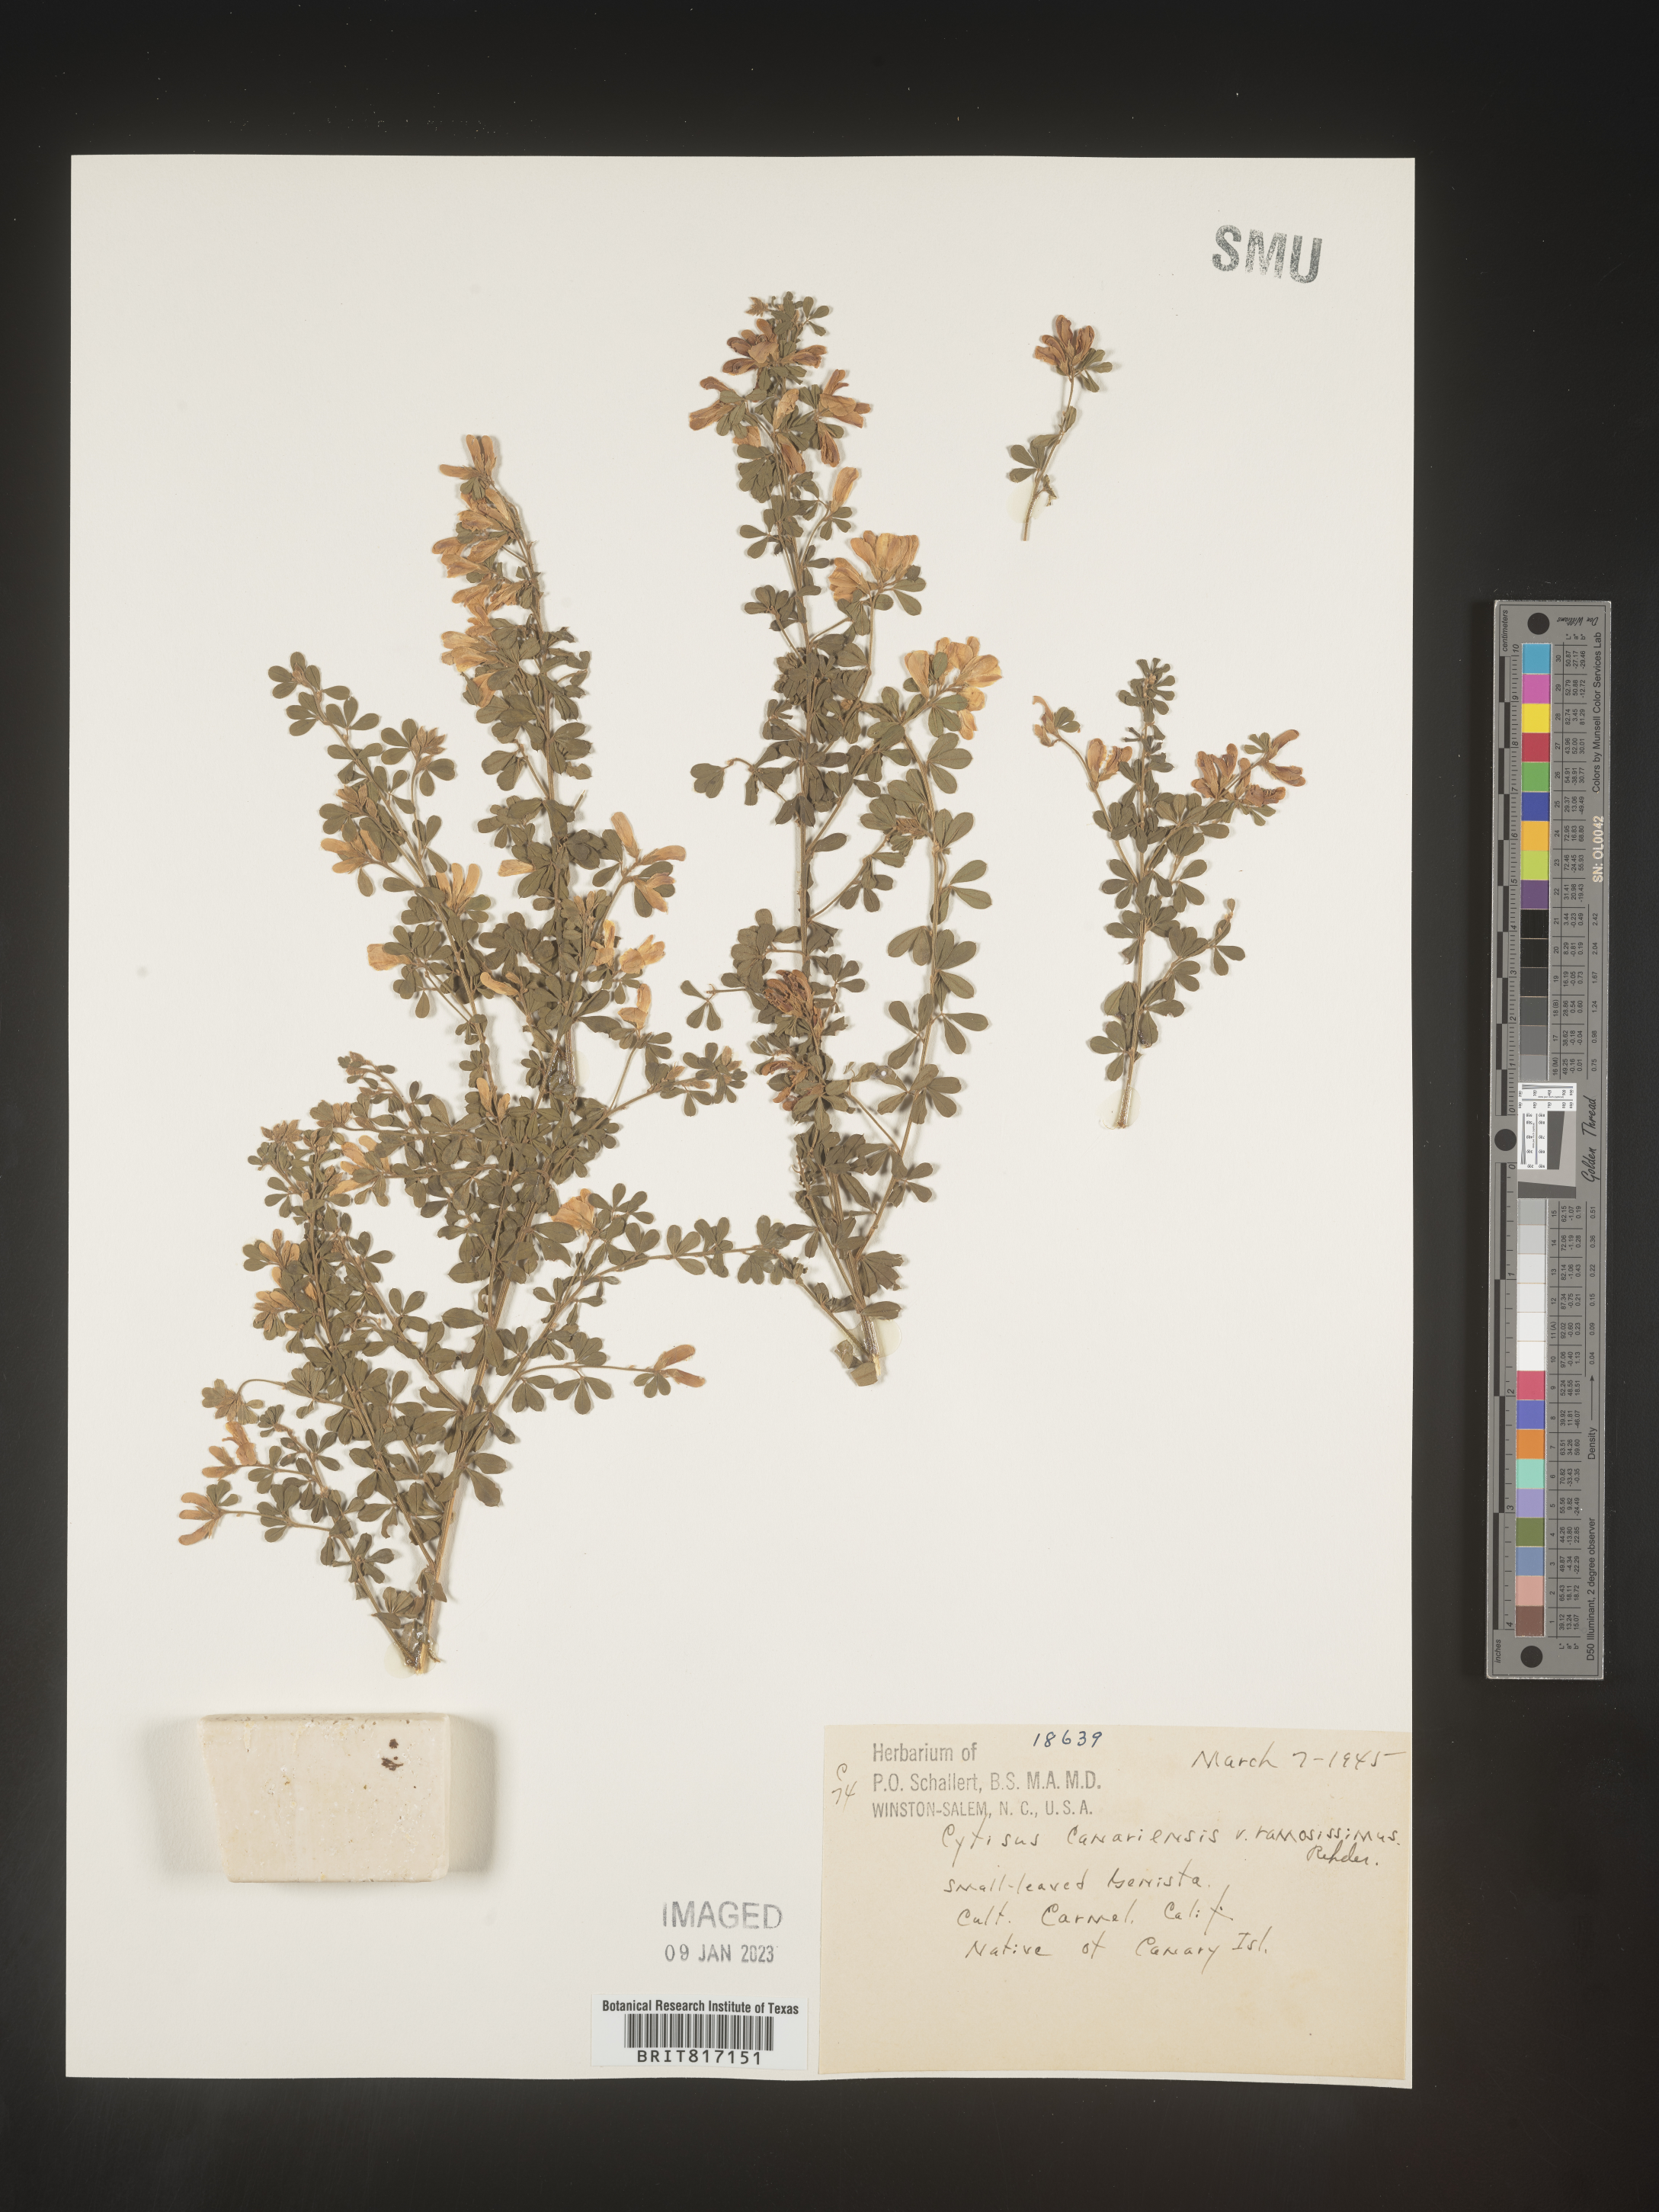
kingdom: Plantae
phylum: Tracheophyta
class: Magnoliopsida
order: Fabales
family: Fabaceae
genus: Cytisus
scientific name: Cytisus
